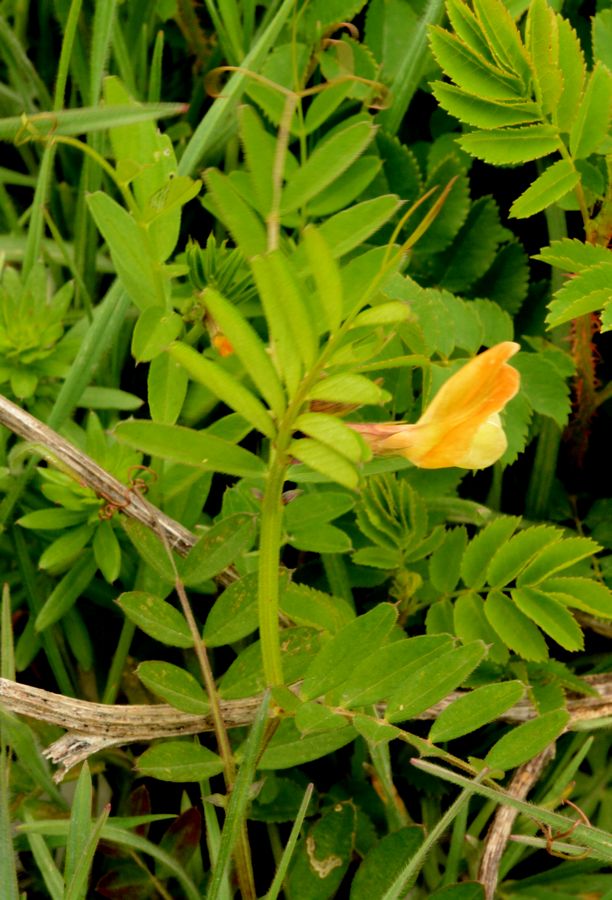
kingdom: Plantae
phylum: Tracheophyta
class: Magnoliopsida
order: Fabales
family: Fabaceae
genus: Vicia
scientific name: Vicia grandiflora
